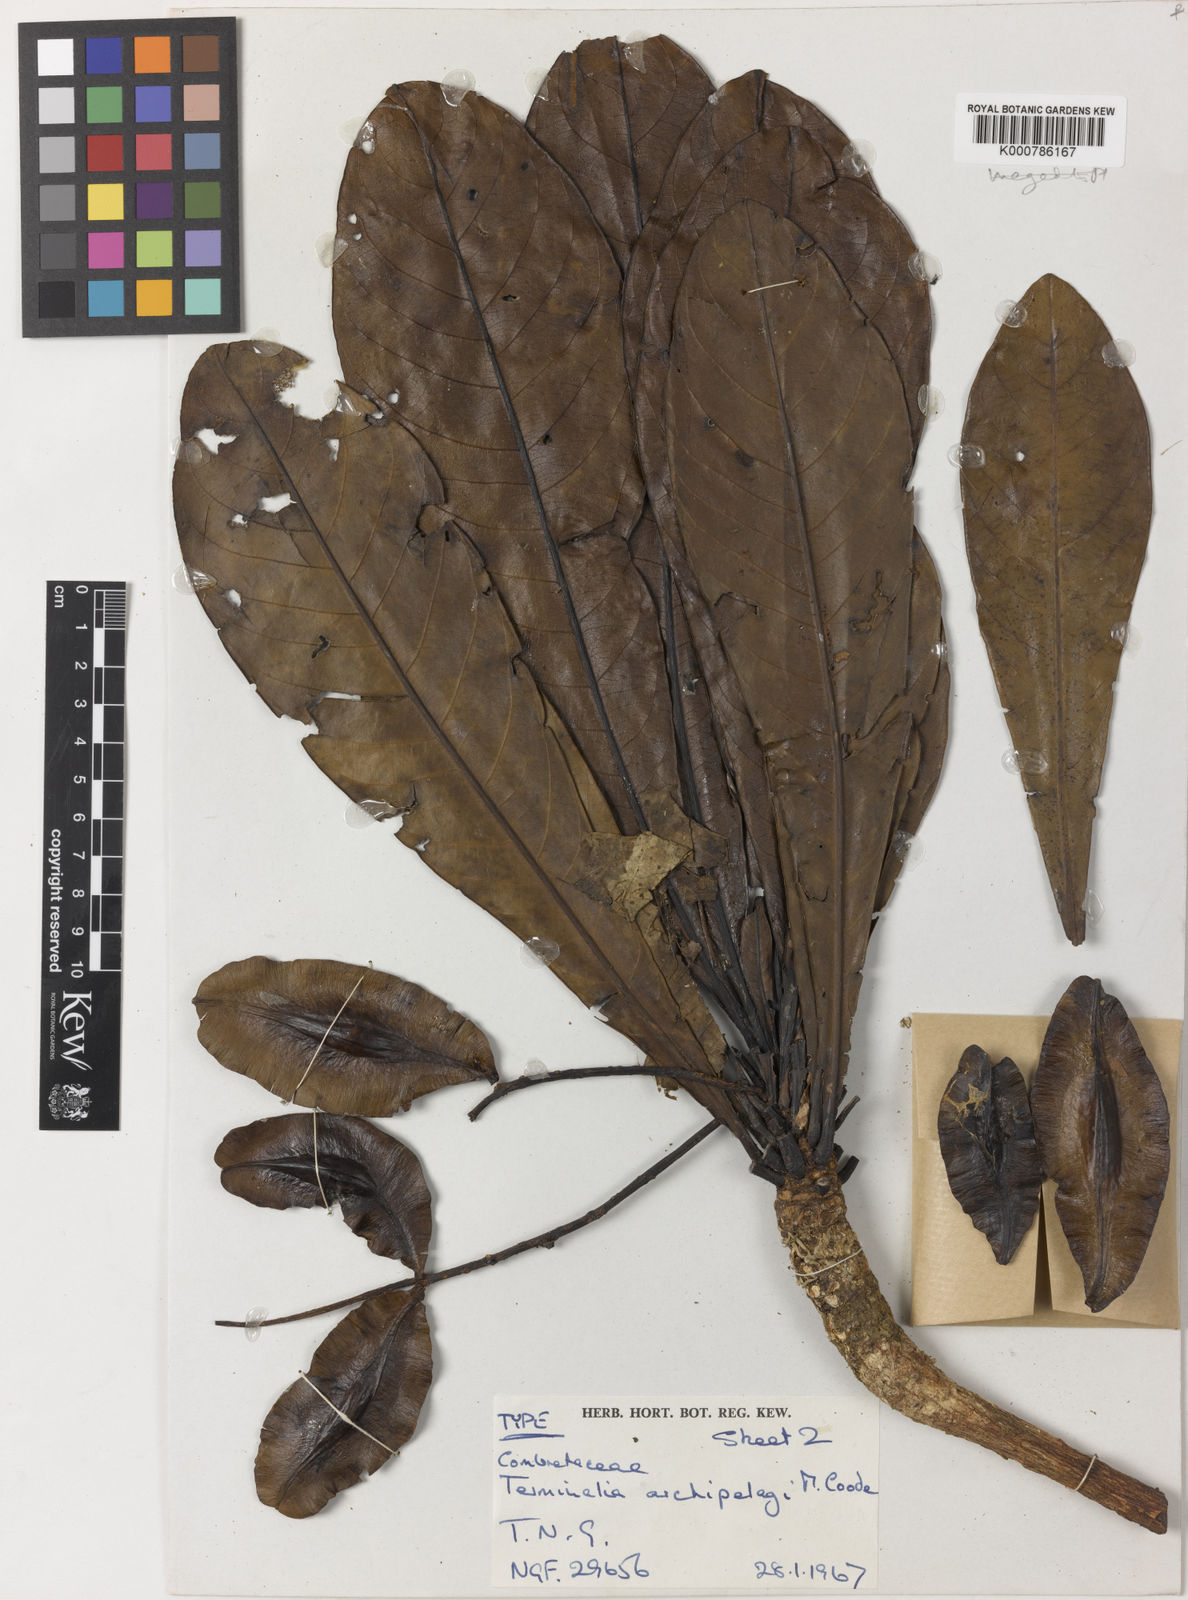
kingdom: Plantae
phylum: Tracheophyta
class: Magnoliopsida
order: Myrtales
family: Combretaceae
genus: Terminalia
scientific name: Terminalia archipelagi
